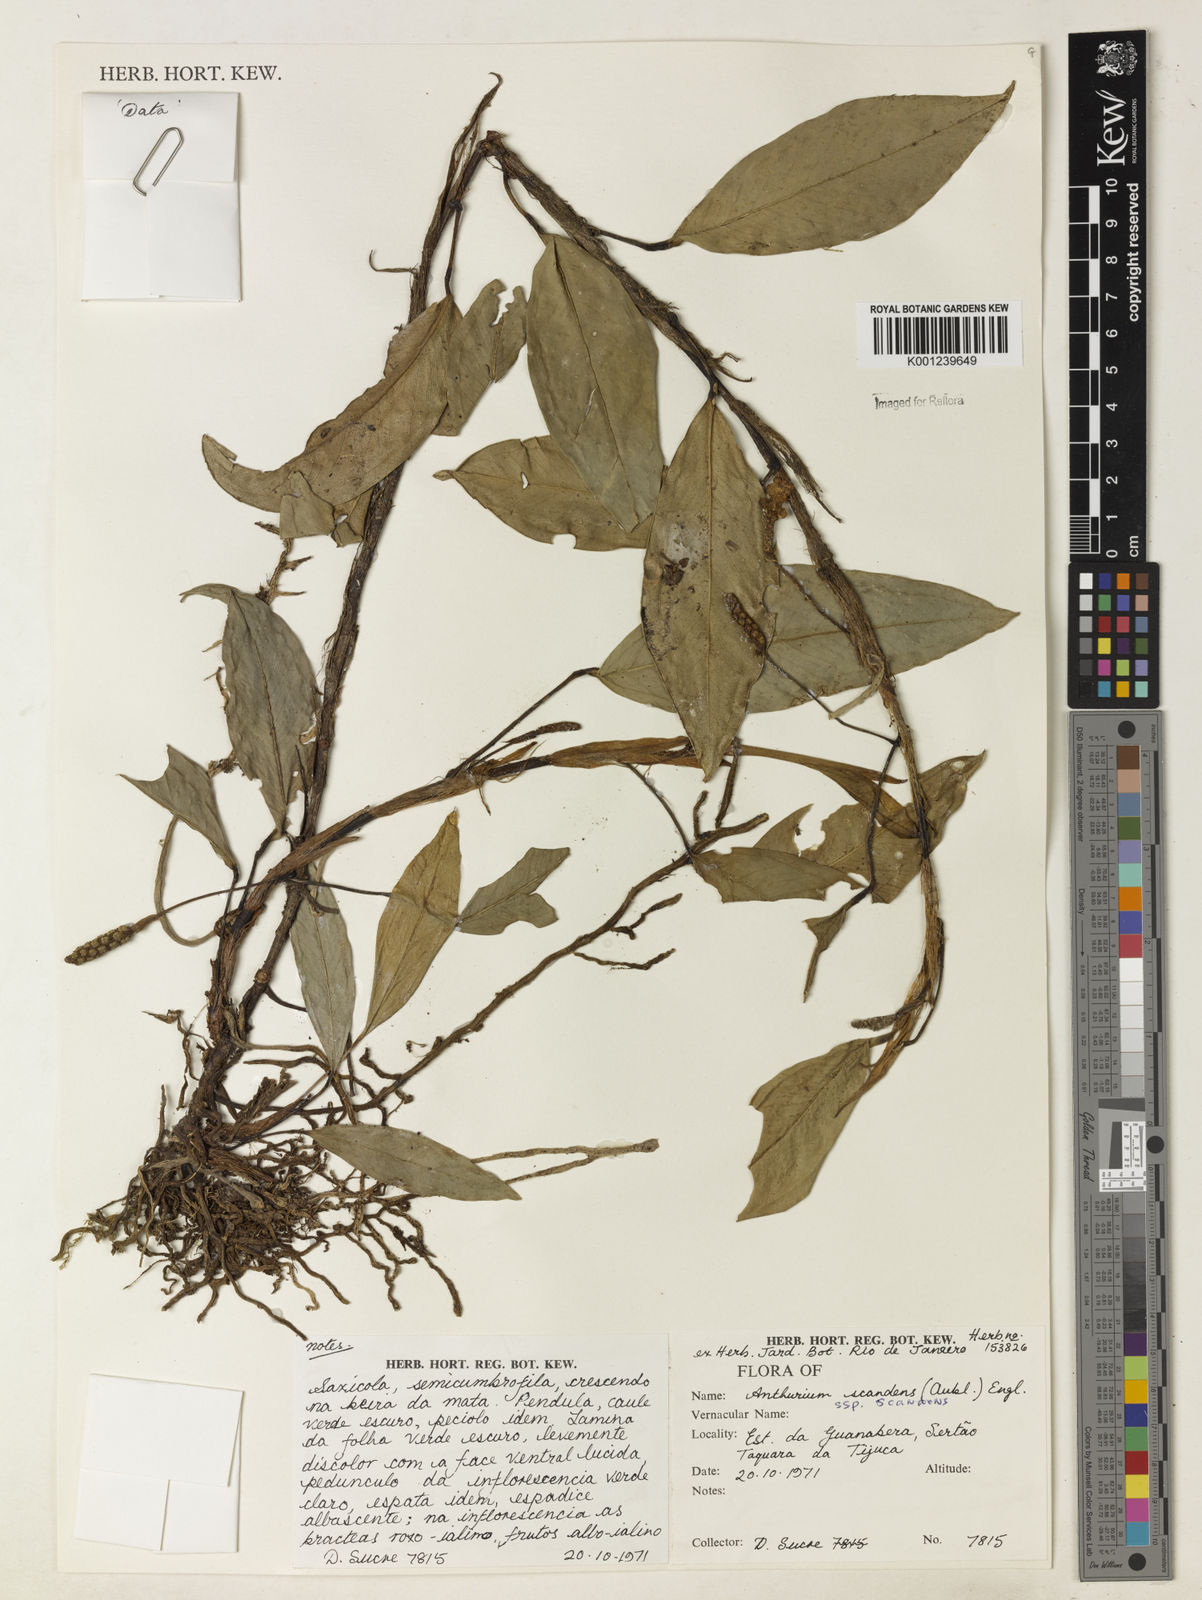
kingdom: Plantae
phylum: Tracheophyta
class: Liliopsida
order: Alismatales
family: Araceae
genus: Anthurium
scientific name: Anthurium scandens
